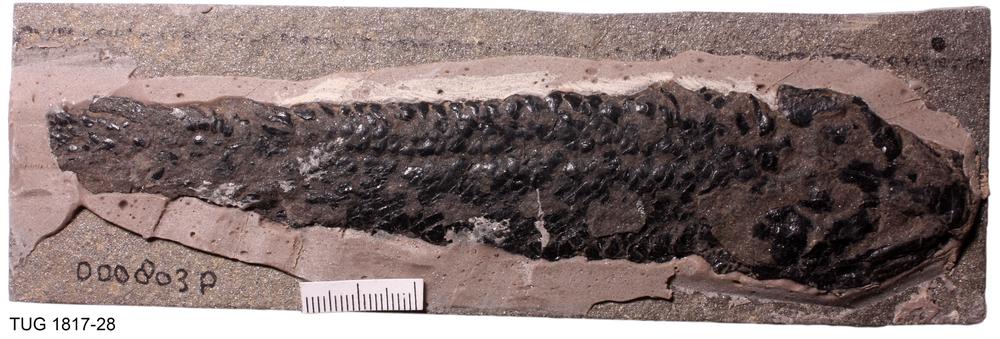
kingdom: Animalia
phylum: Chordata
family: Thursiidae
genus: Thursius
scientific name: Thursius Dipterus macrolepidotus
